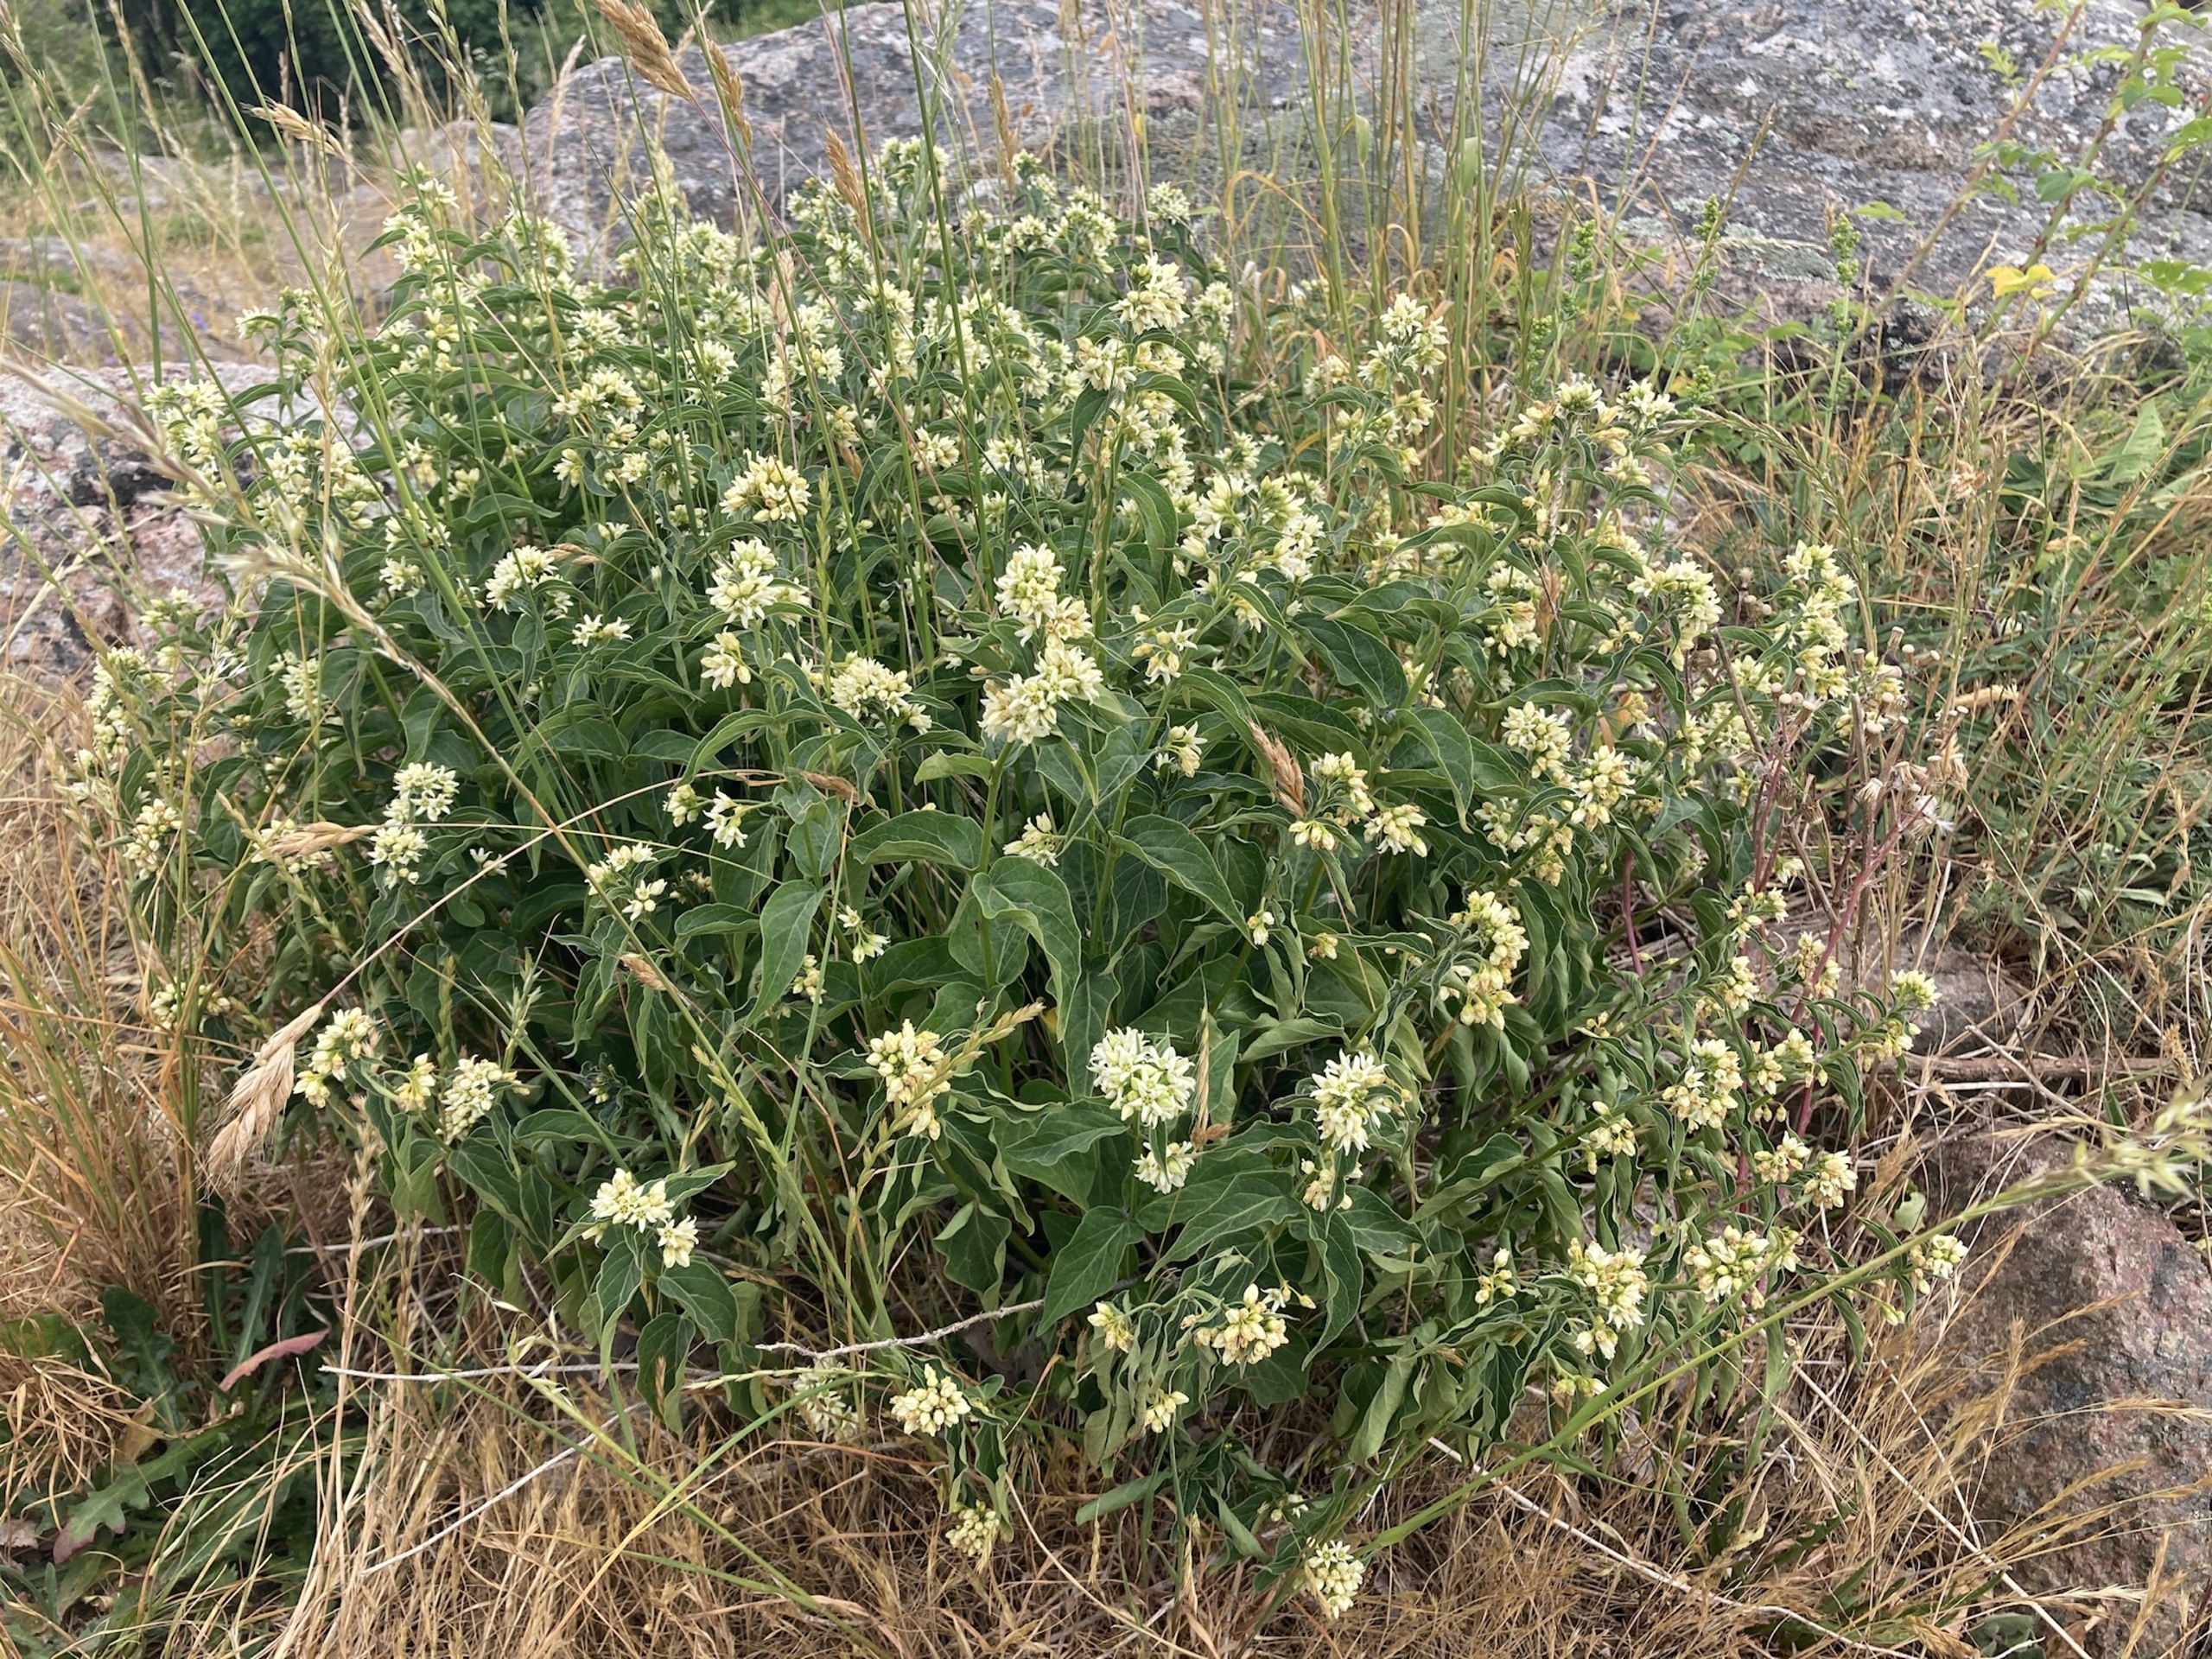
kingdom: Plantae
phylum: Tracheophyta
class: Magnoliopsida
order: Gentianales
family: Apocynaceae
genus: Vincetoxicum
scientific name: Vincetoxicum hirundinaria
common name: Svalerod
